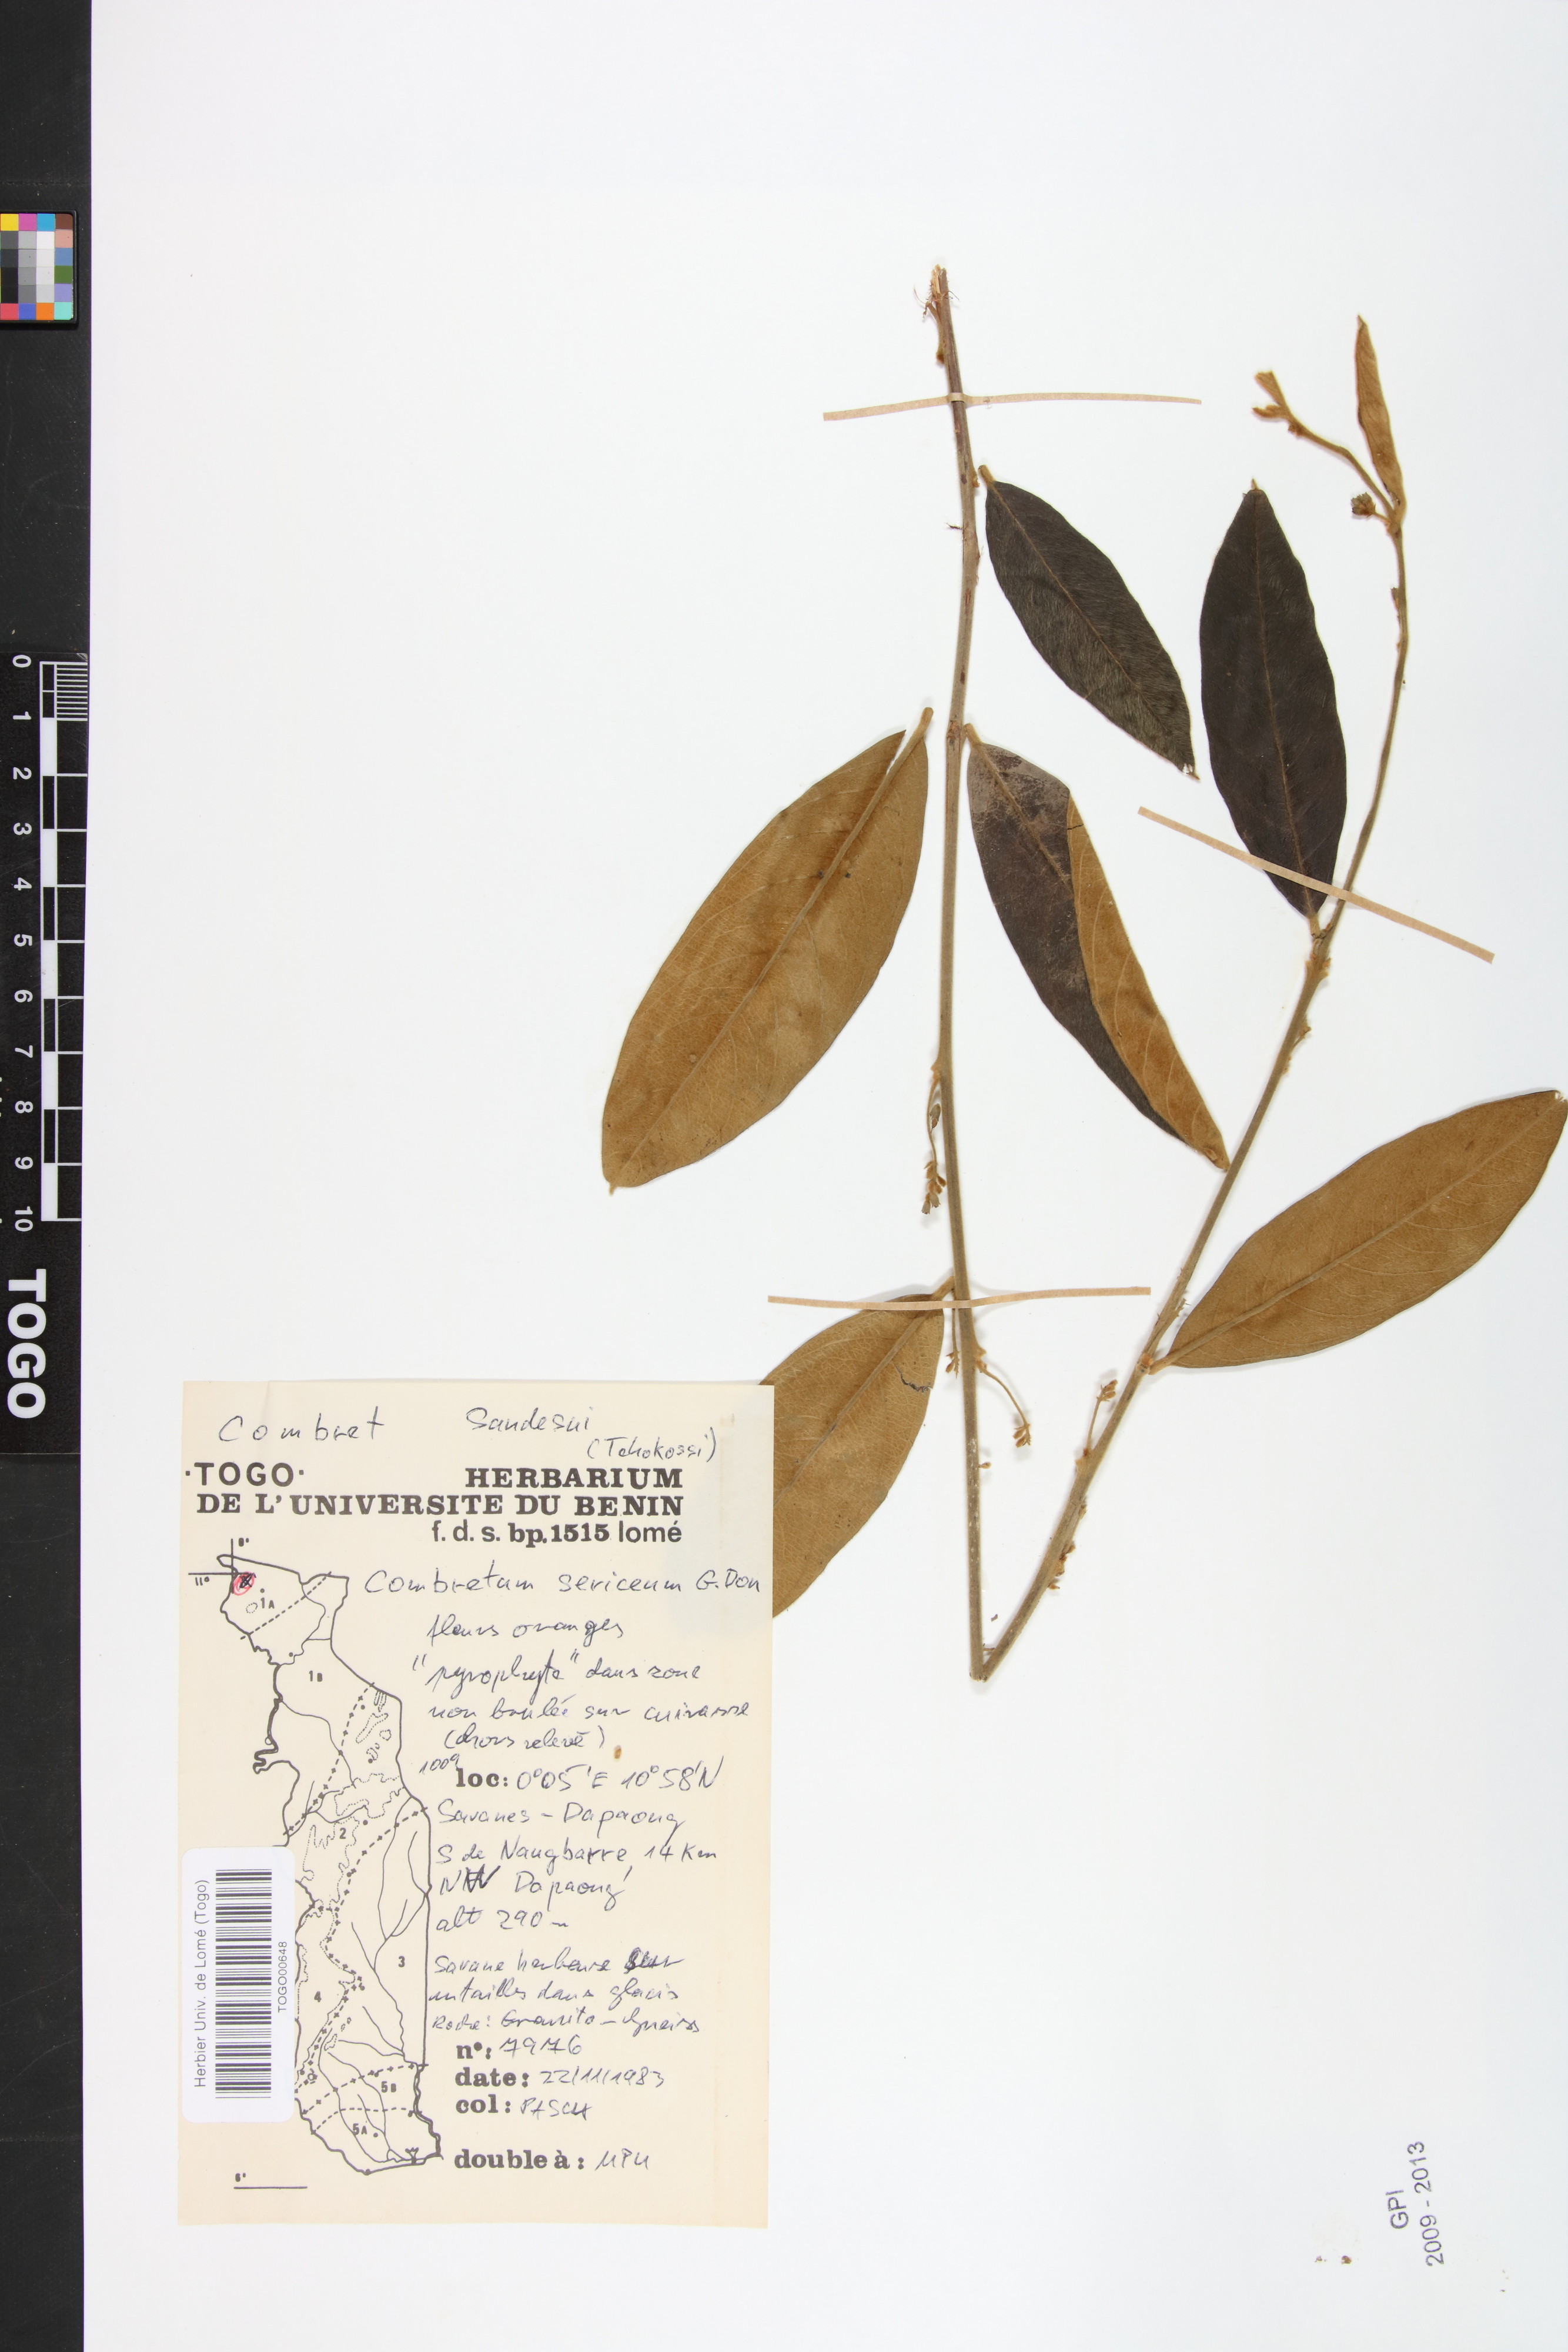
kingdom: Plantae
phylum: Tracheophyta
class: Magnoliopsida
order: Myrtales
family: Combretaceae
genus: Combretum
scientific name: Combretum sericeum
